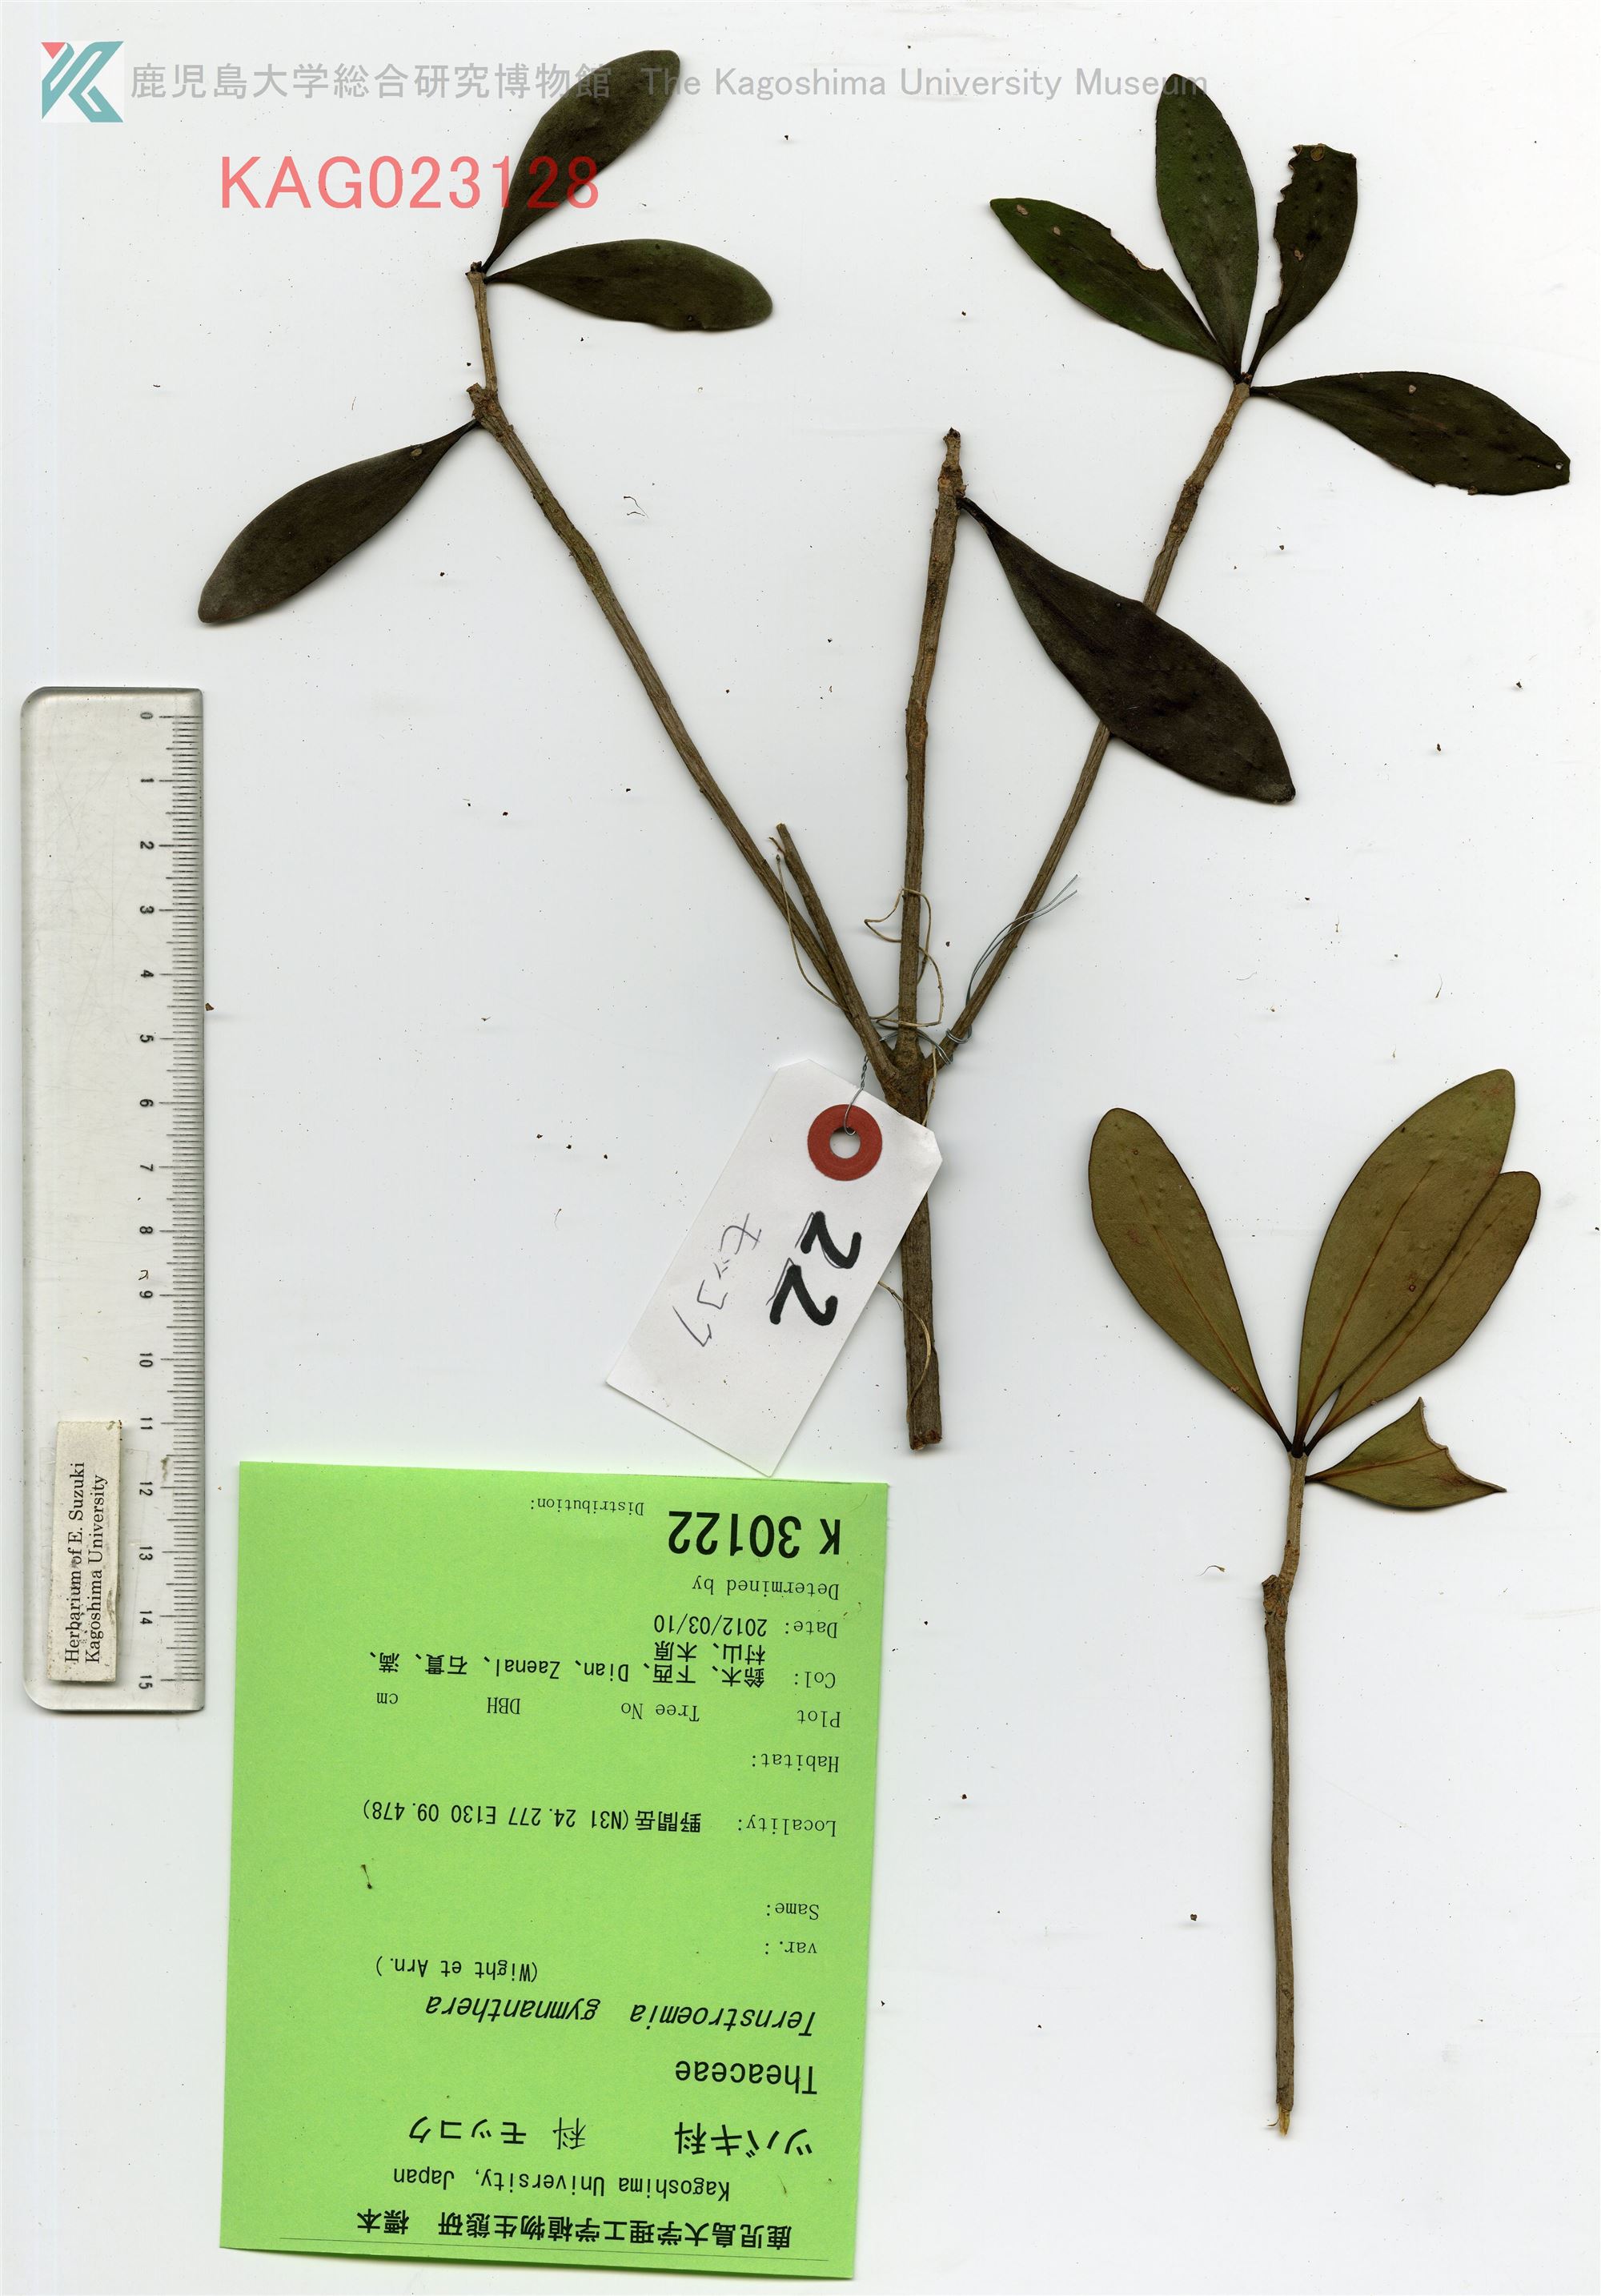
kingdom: Plantae
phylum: Tracheophyta
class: Magnoliopsida
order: Ericales
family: Pentaphylacaceae
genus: Ternstroemia
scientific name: Ternstroemia gymnanthera
